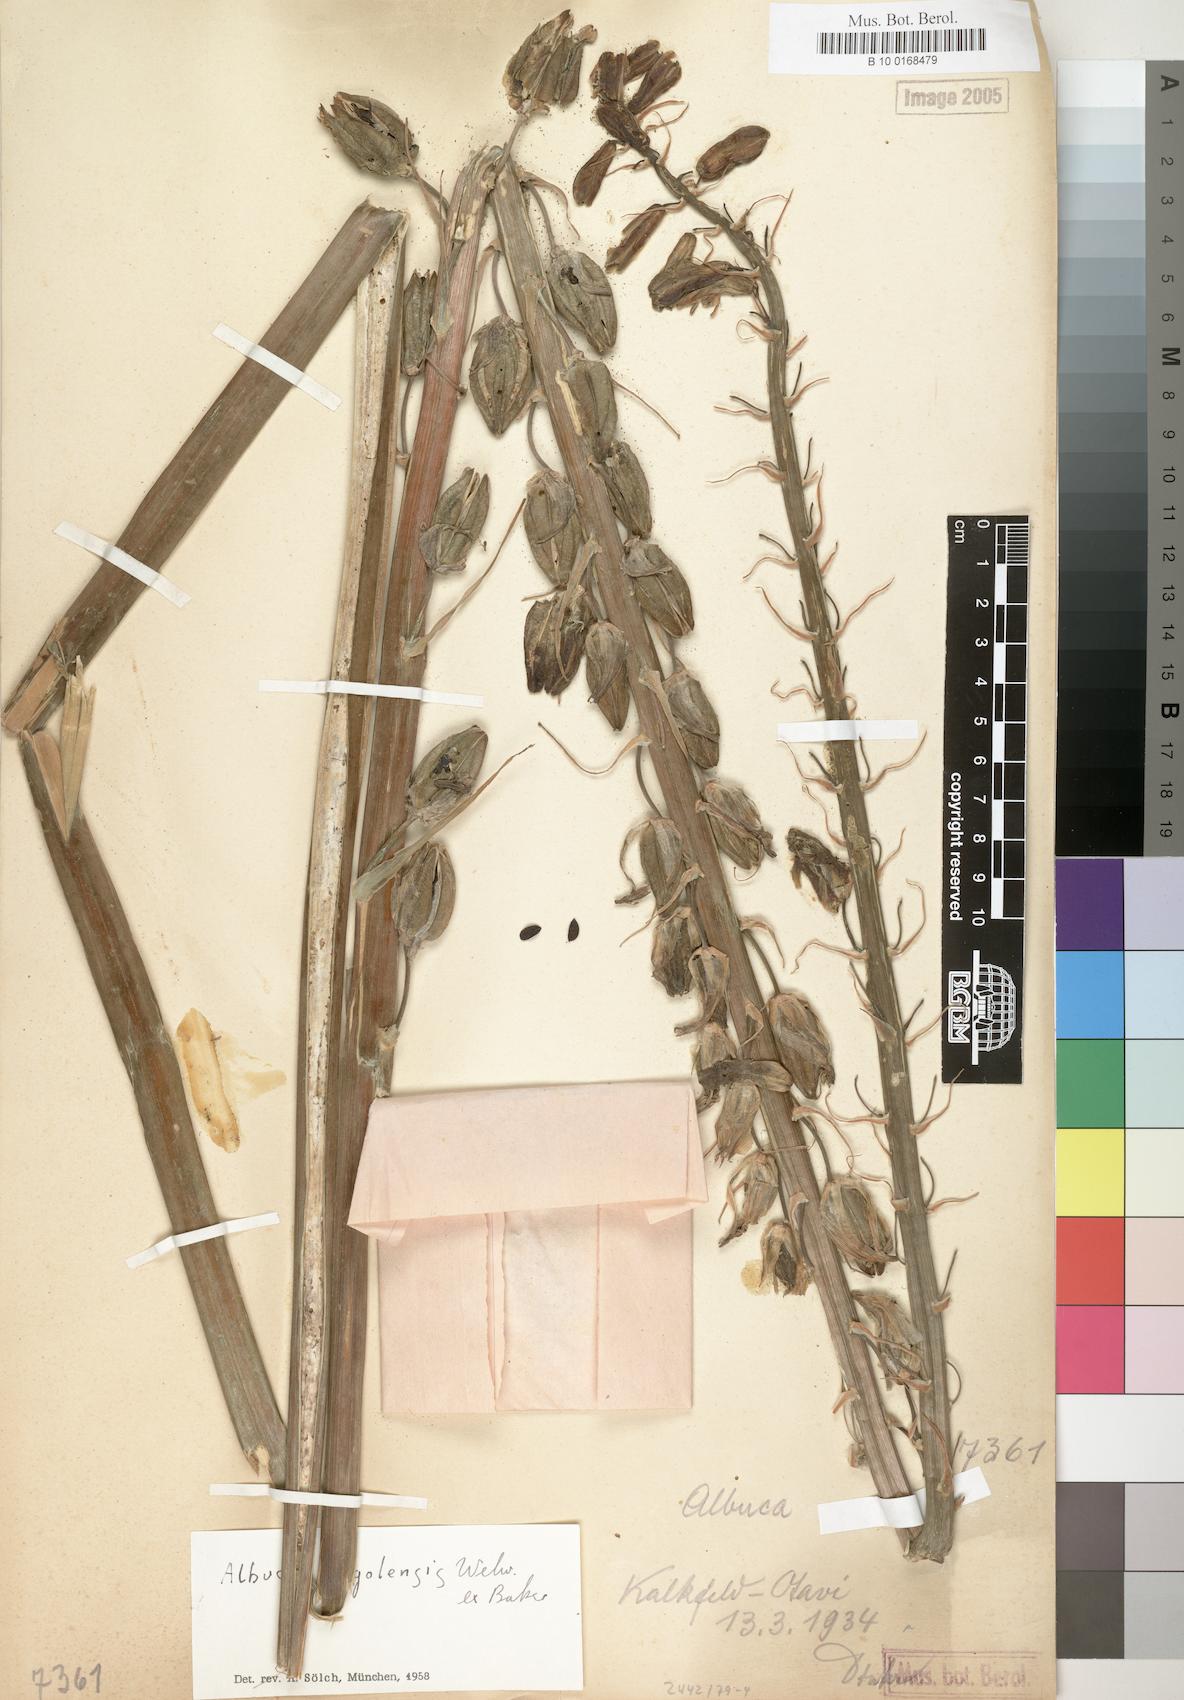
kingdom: Plantae
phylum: Tracheophyta
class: Liliopsida
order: Asparagales
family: Asparagaceae
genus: Albuca
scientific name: Albuca abyssinica
